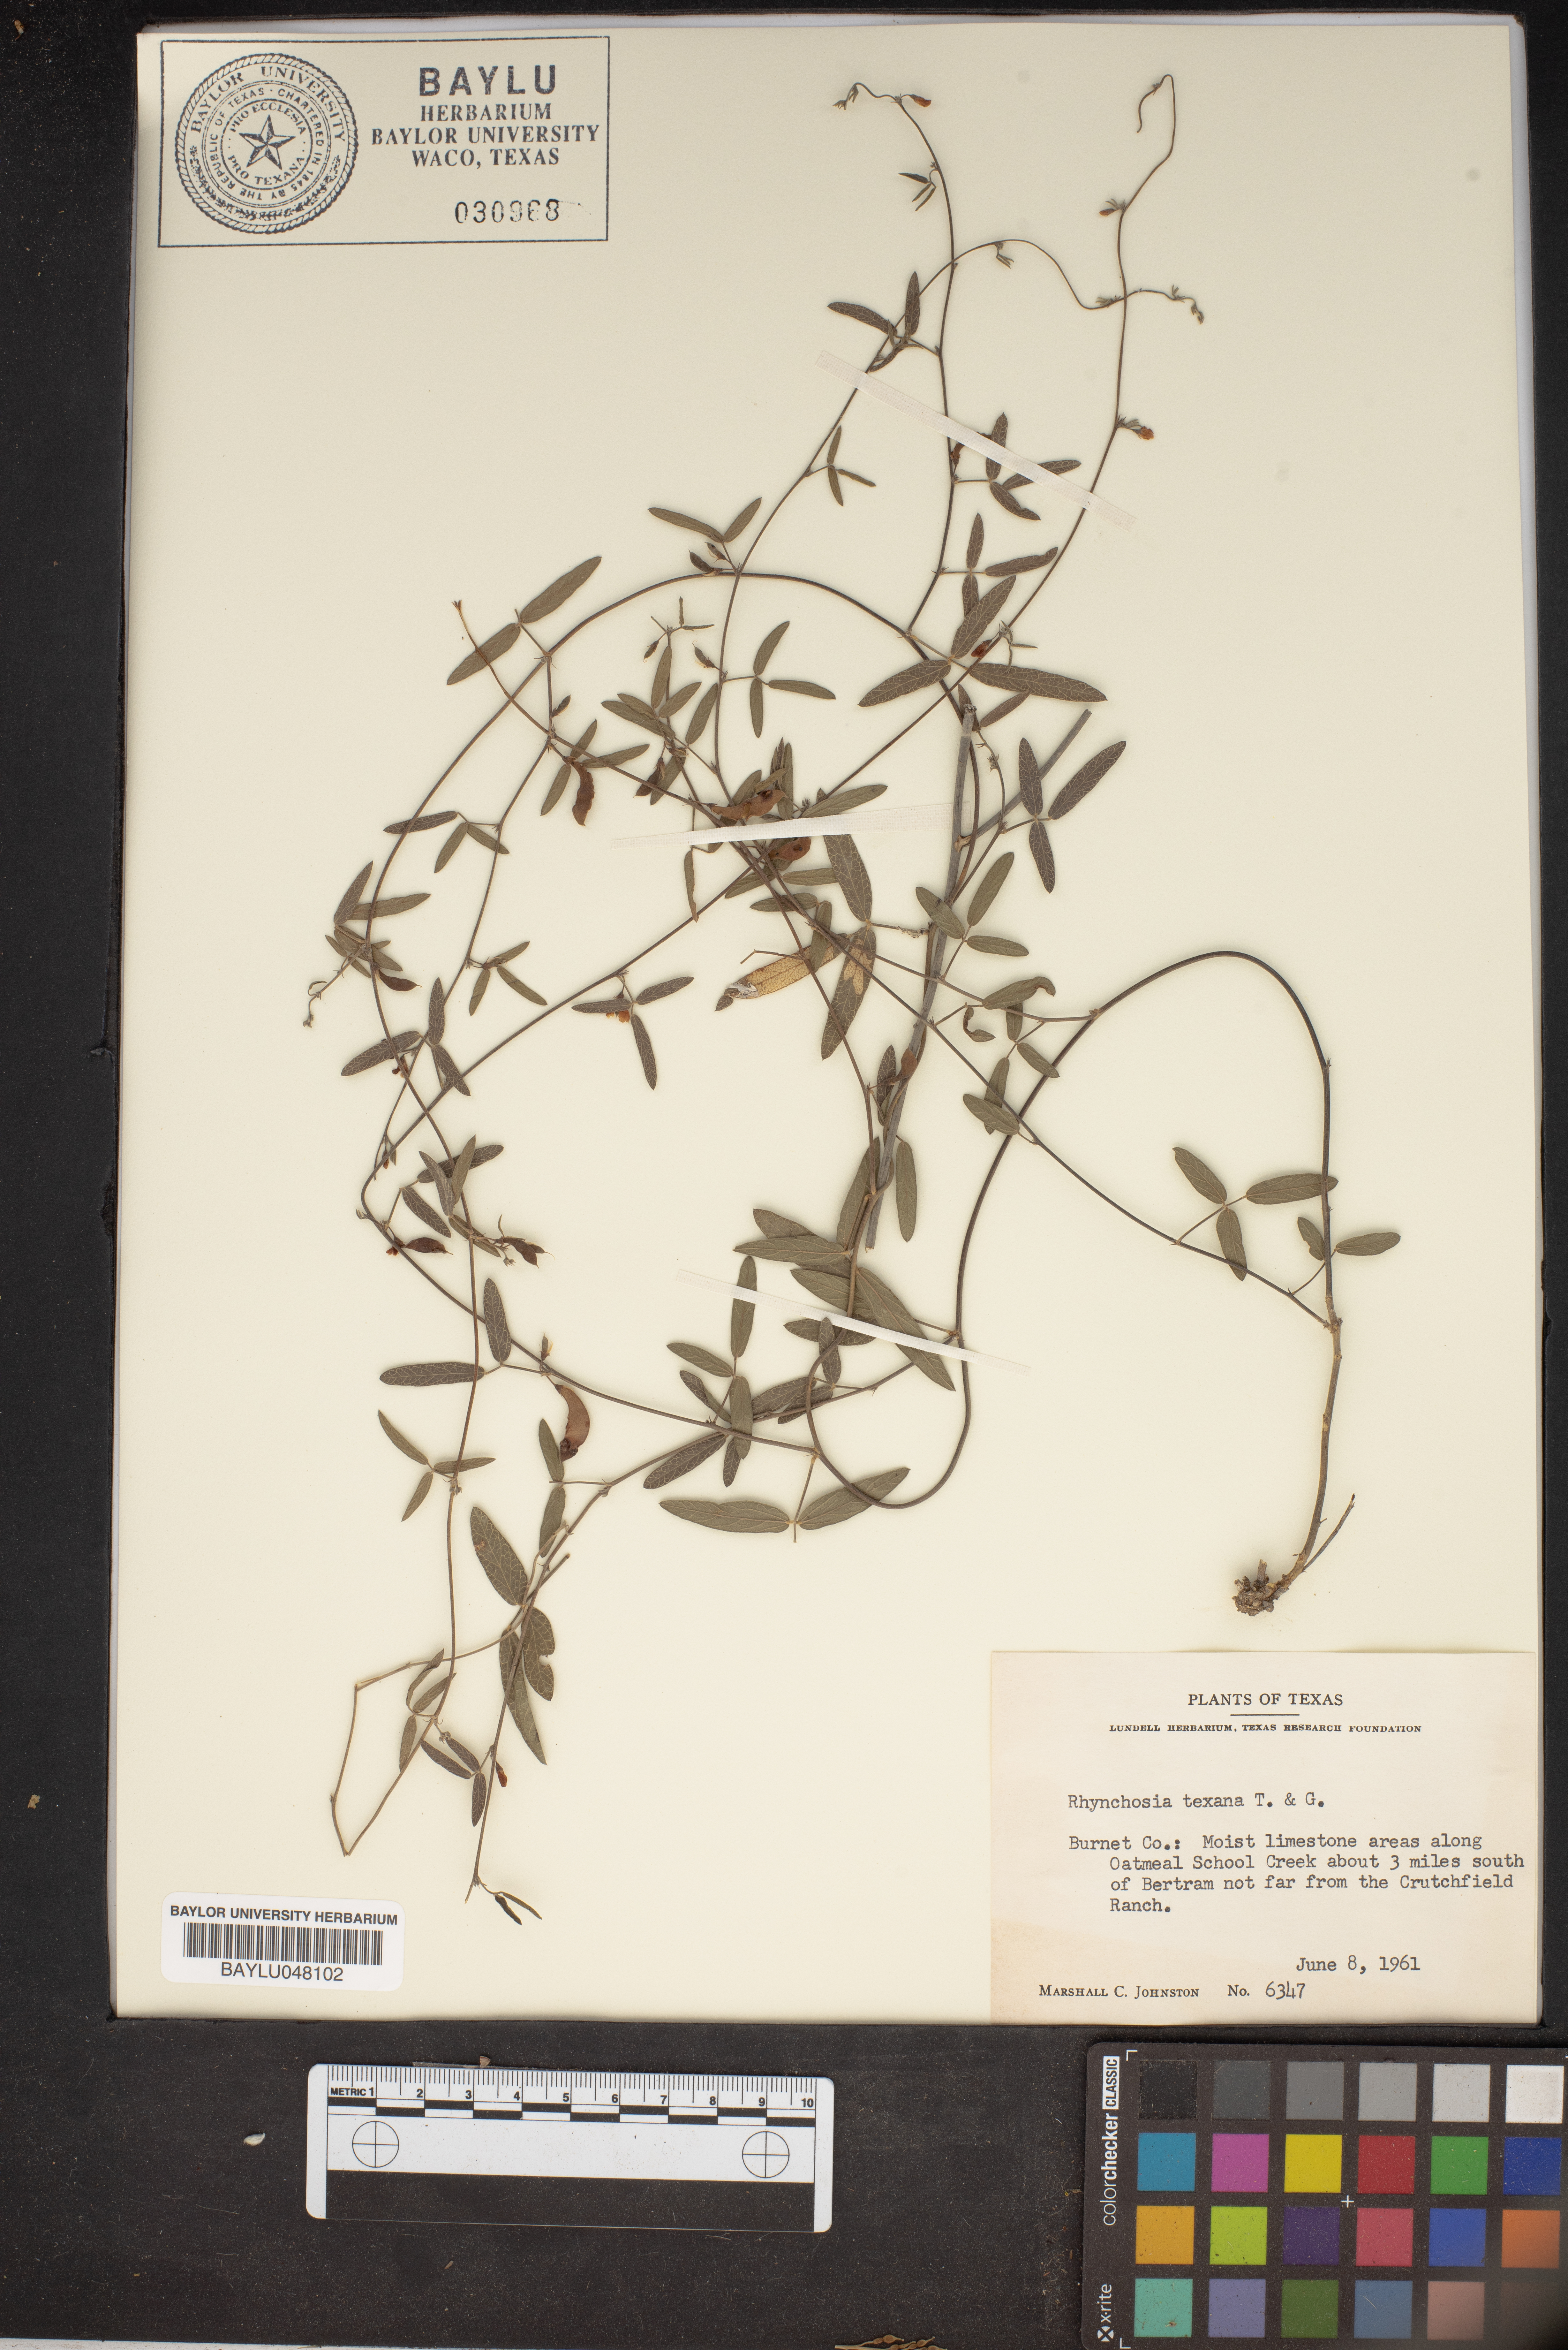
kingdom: Plantae
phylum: Tracheophyta
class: Magnoliopsida
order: Fabales
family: Fabaceae
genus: Rhynchosia
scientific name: Rhynchosia senna
